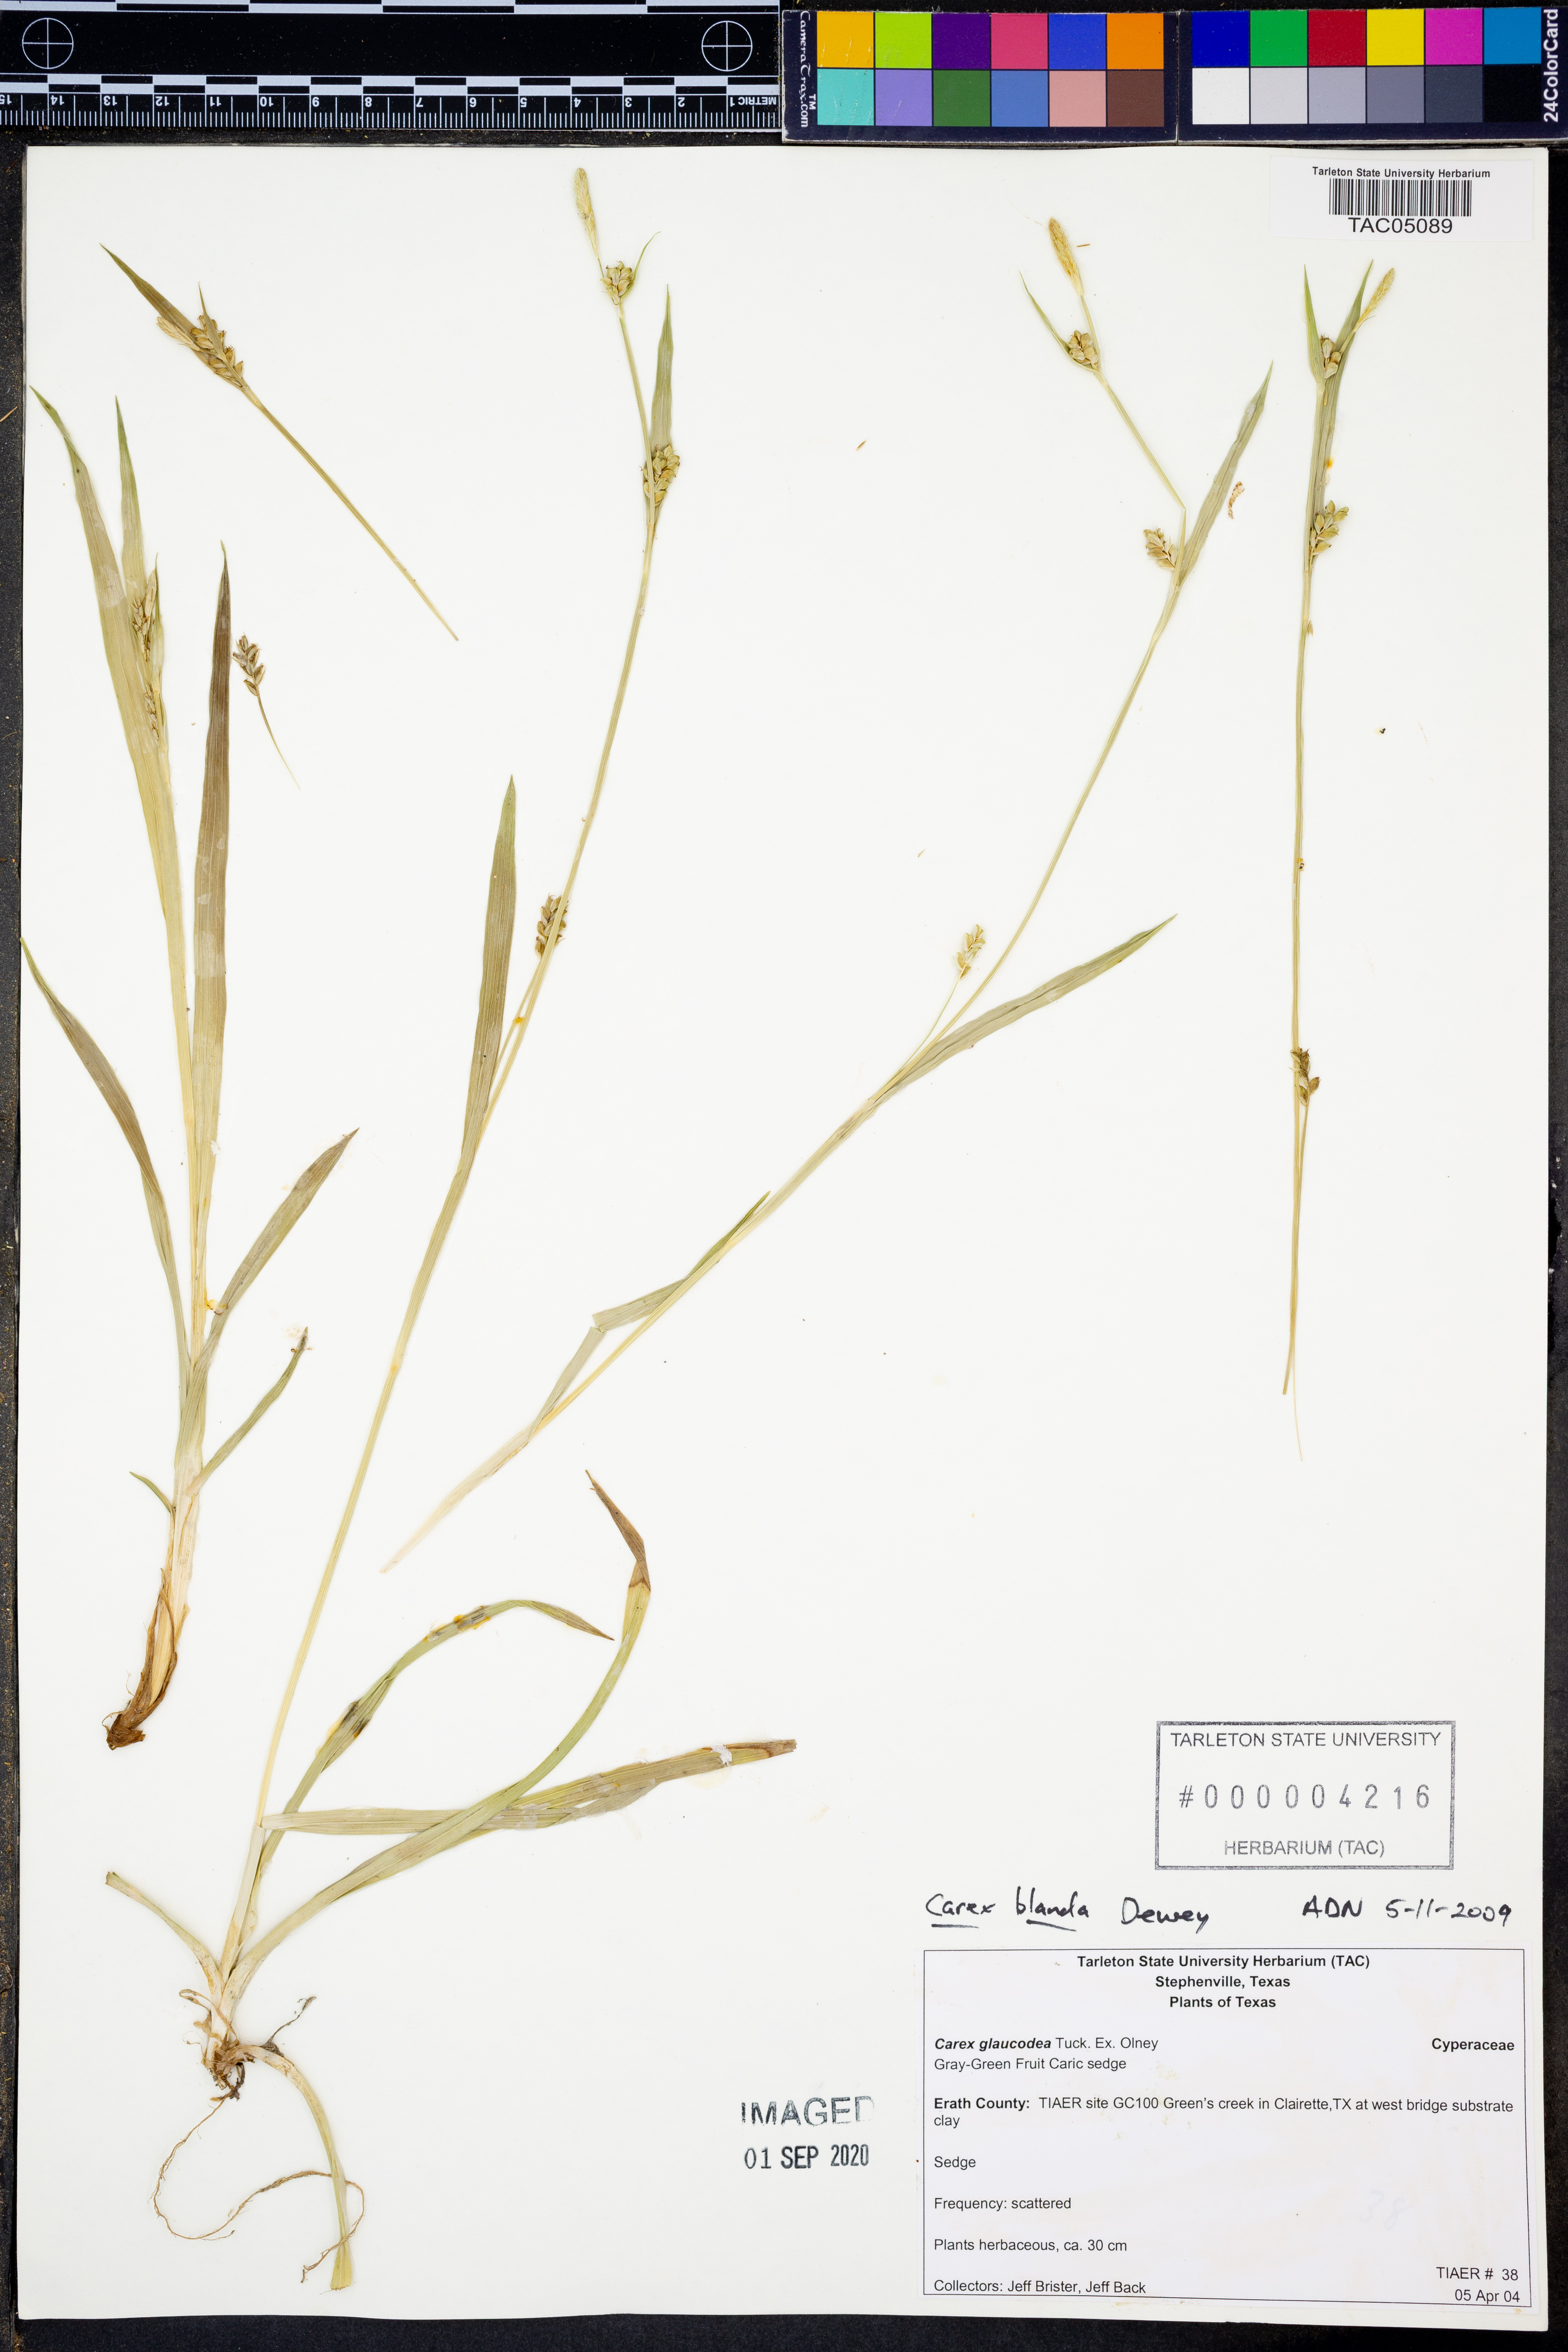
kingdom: Plantae
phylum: Tracheophyta
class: Liliopsida
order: Poales
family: Cyperaceae
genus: Carex
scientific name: Carex blanda
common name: Bland sedge
